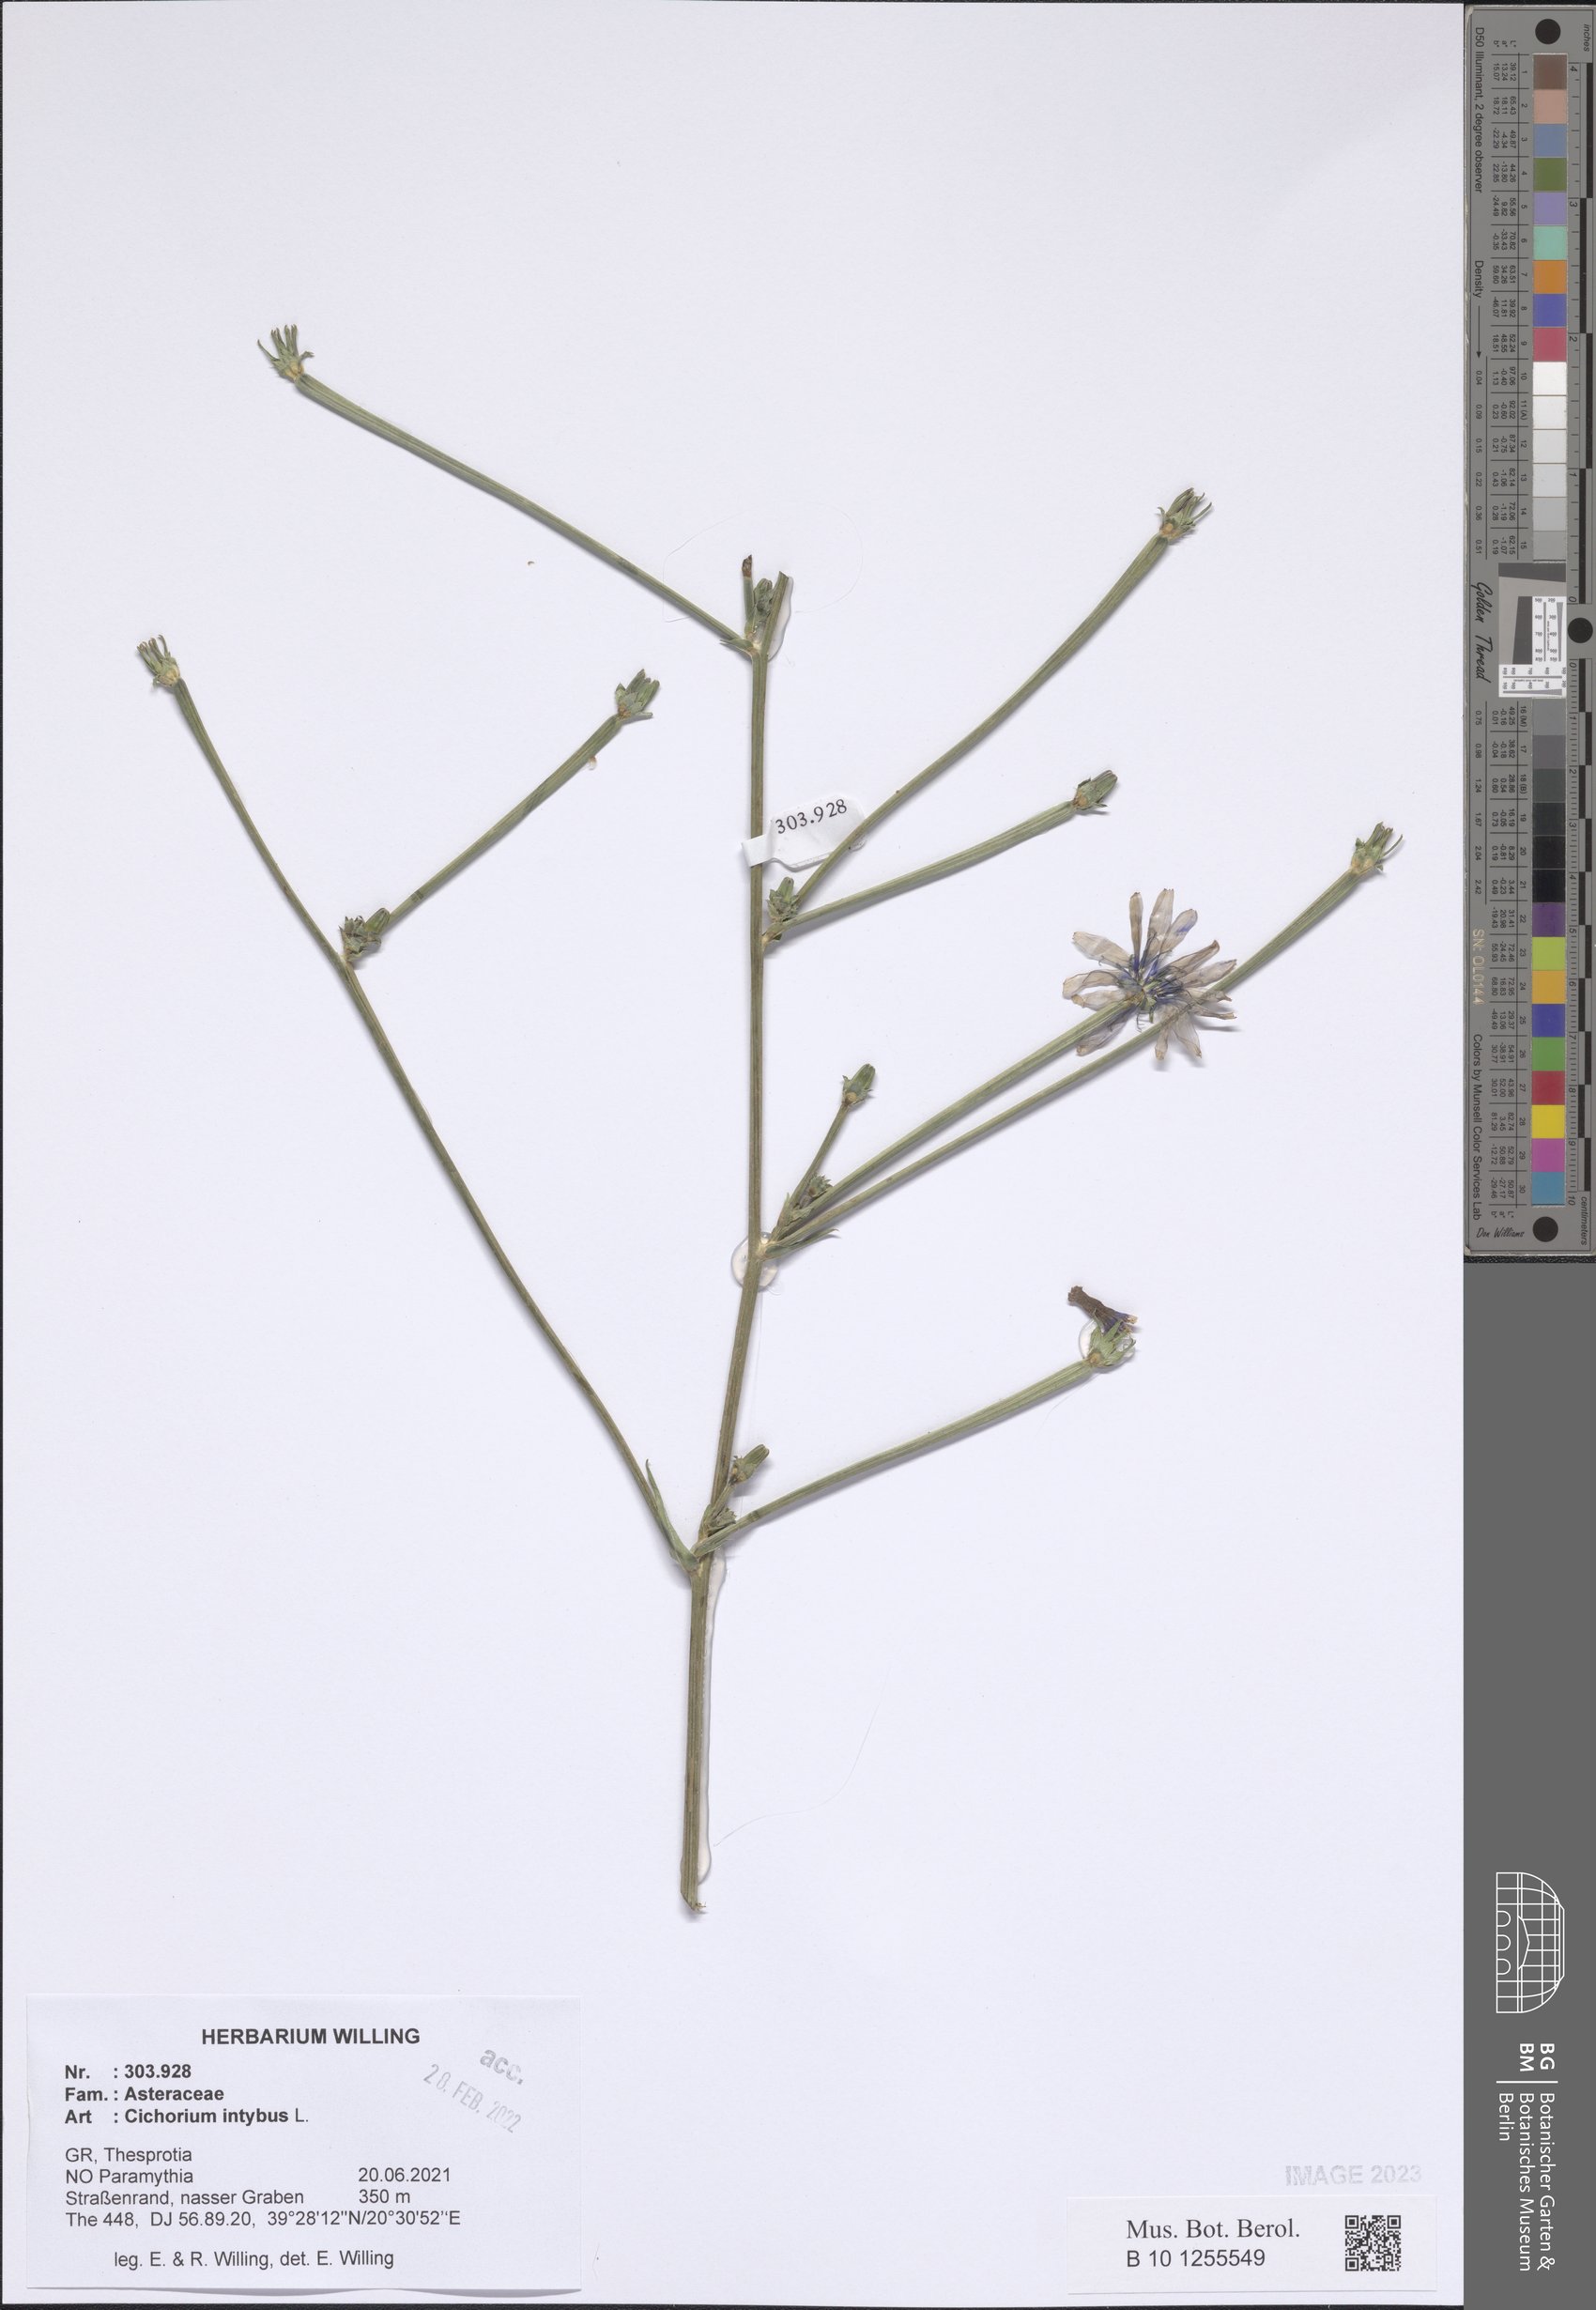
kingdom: Plantae
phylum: Tracheophyta
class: Magnoliopsida
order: Asterales
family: Asteraceae
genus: Cichorium
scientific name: Cichorium intybus
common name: Chicory
